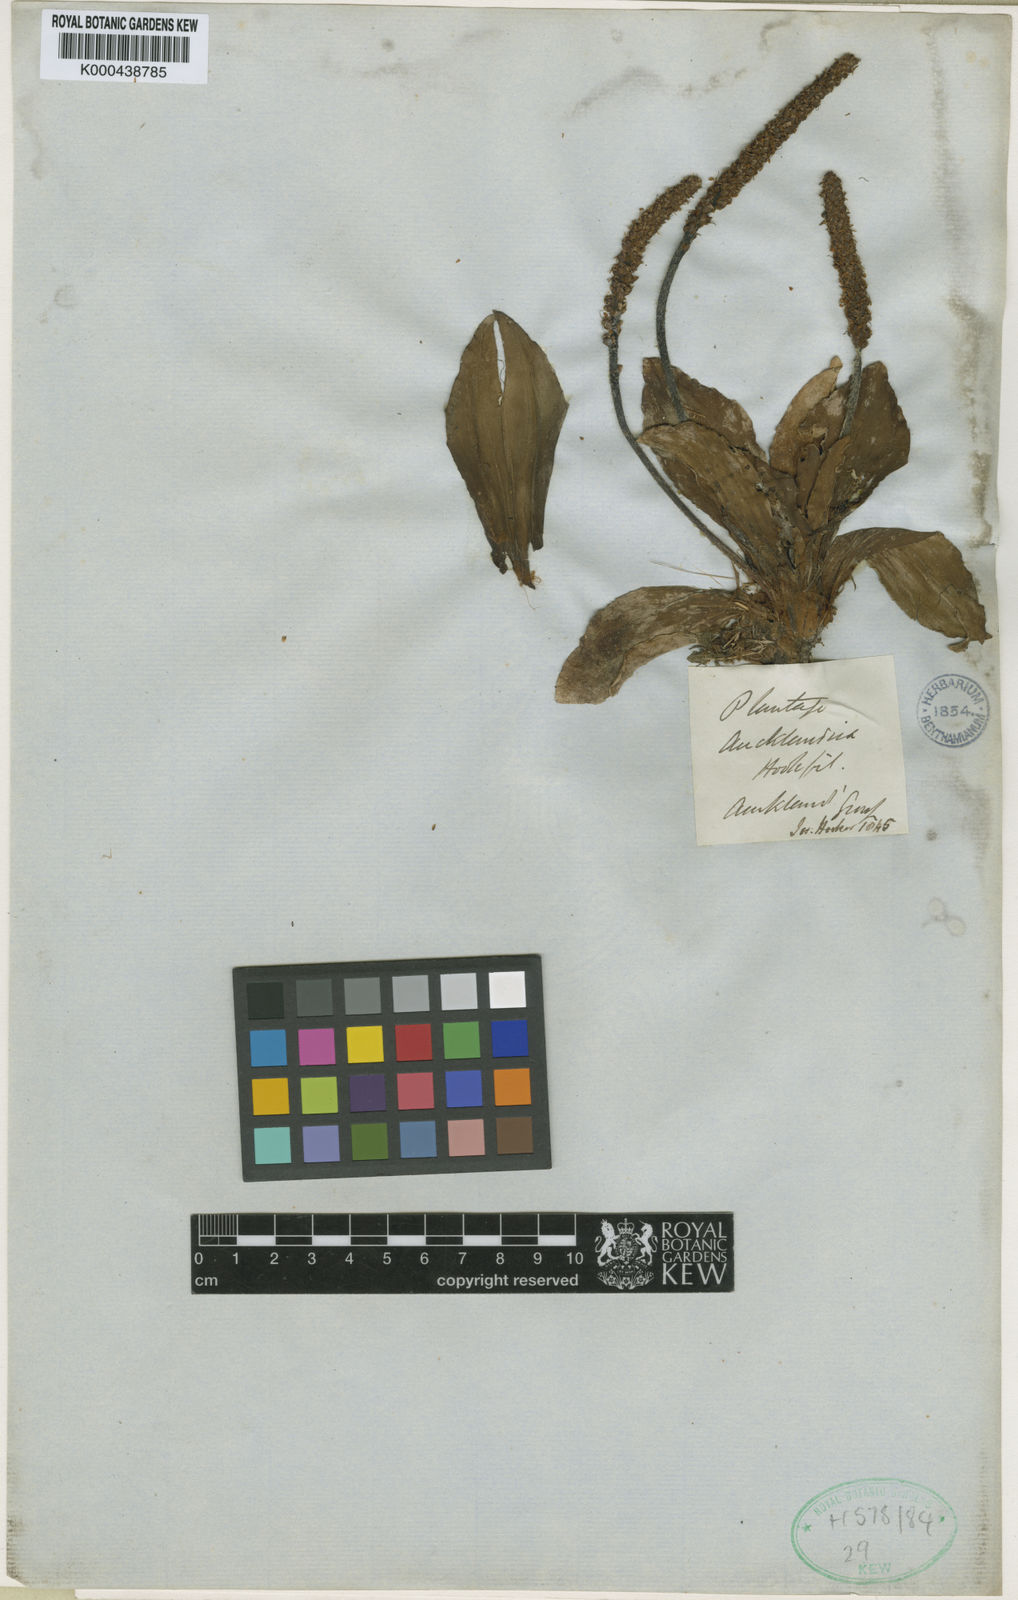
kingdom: Plantae
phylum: Tracheophyta
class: Magnoliopsida
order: Lamiales
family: Plantaginaceae
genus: Plantago
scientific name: Plantago aucklandica
